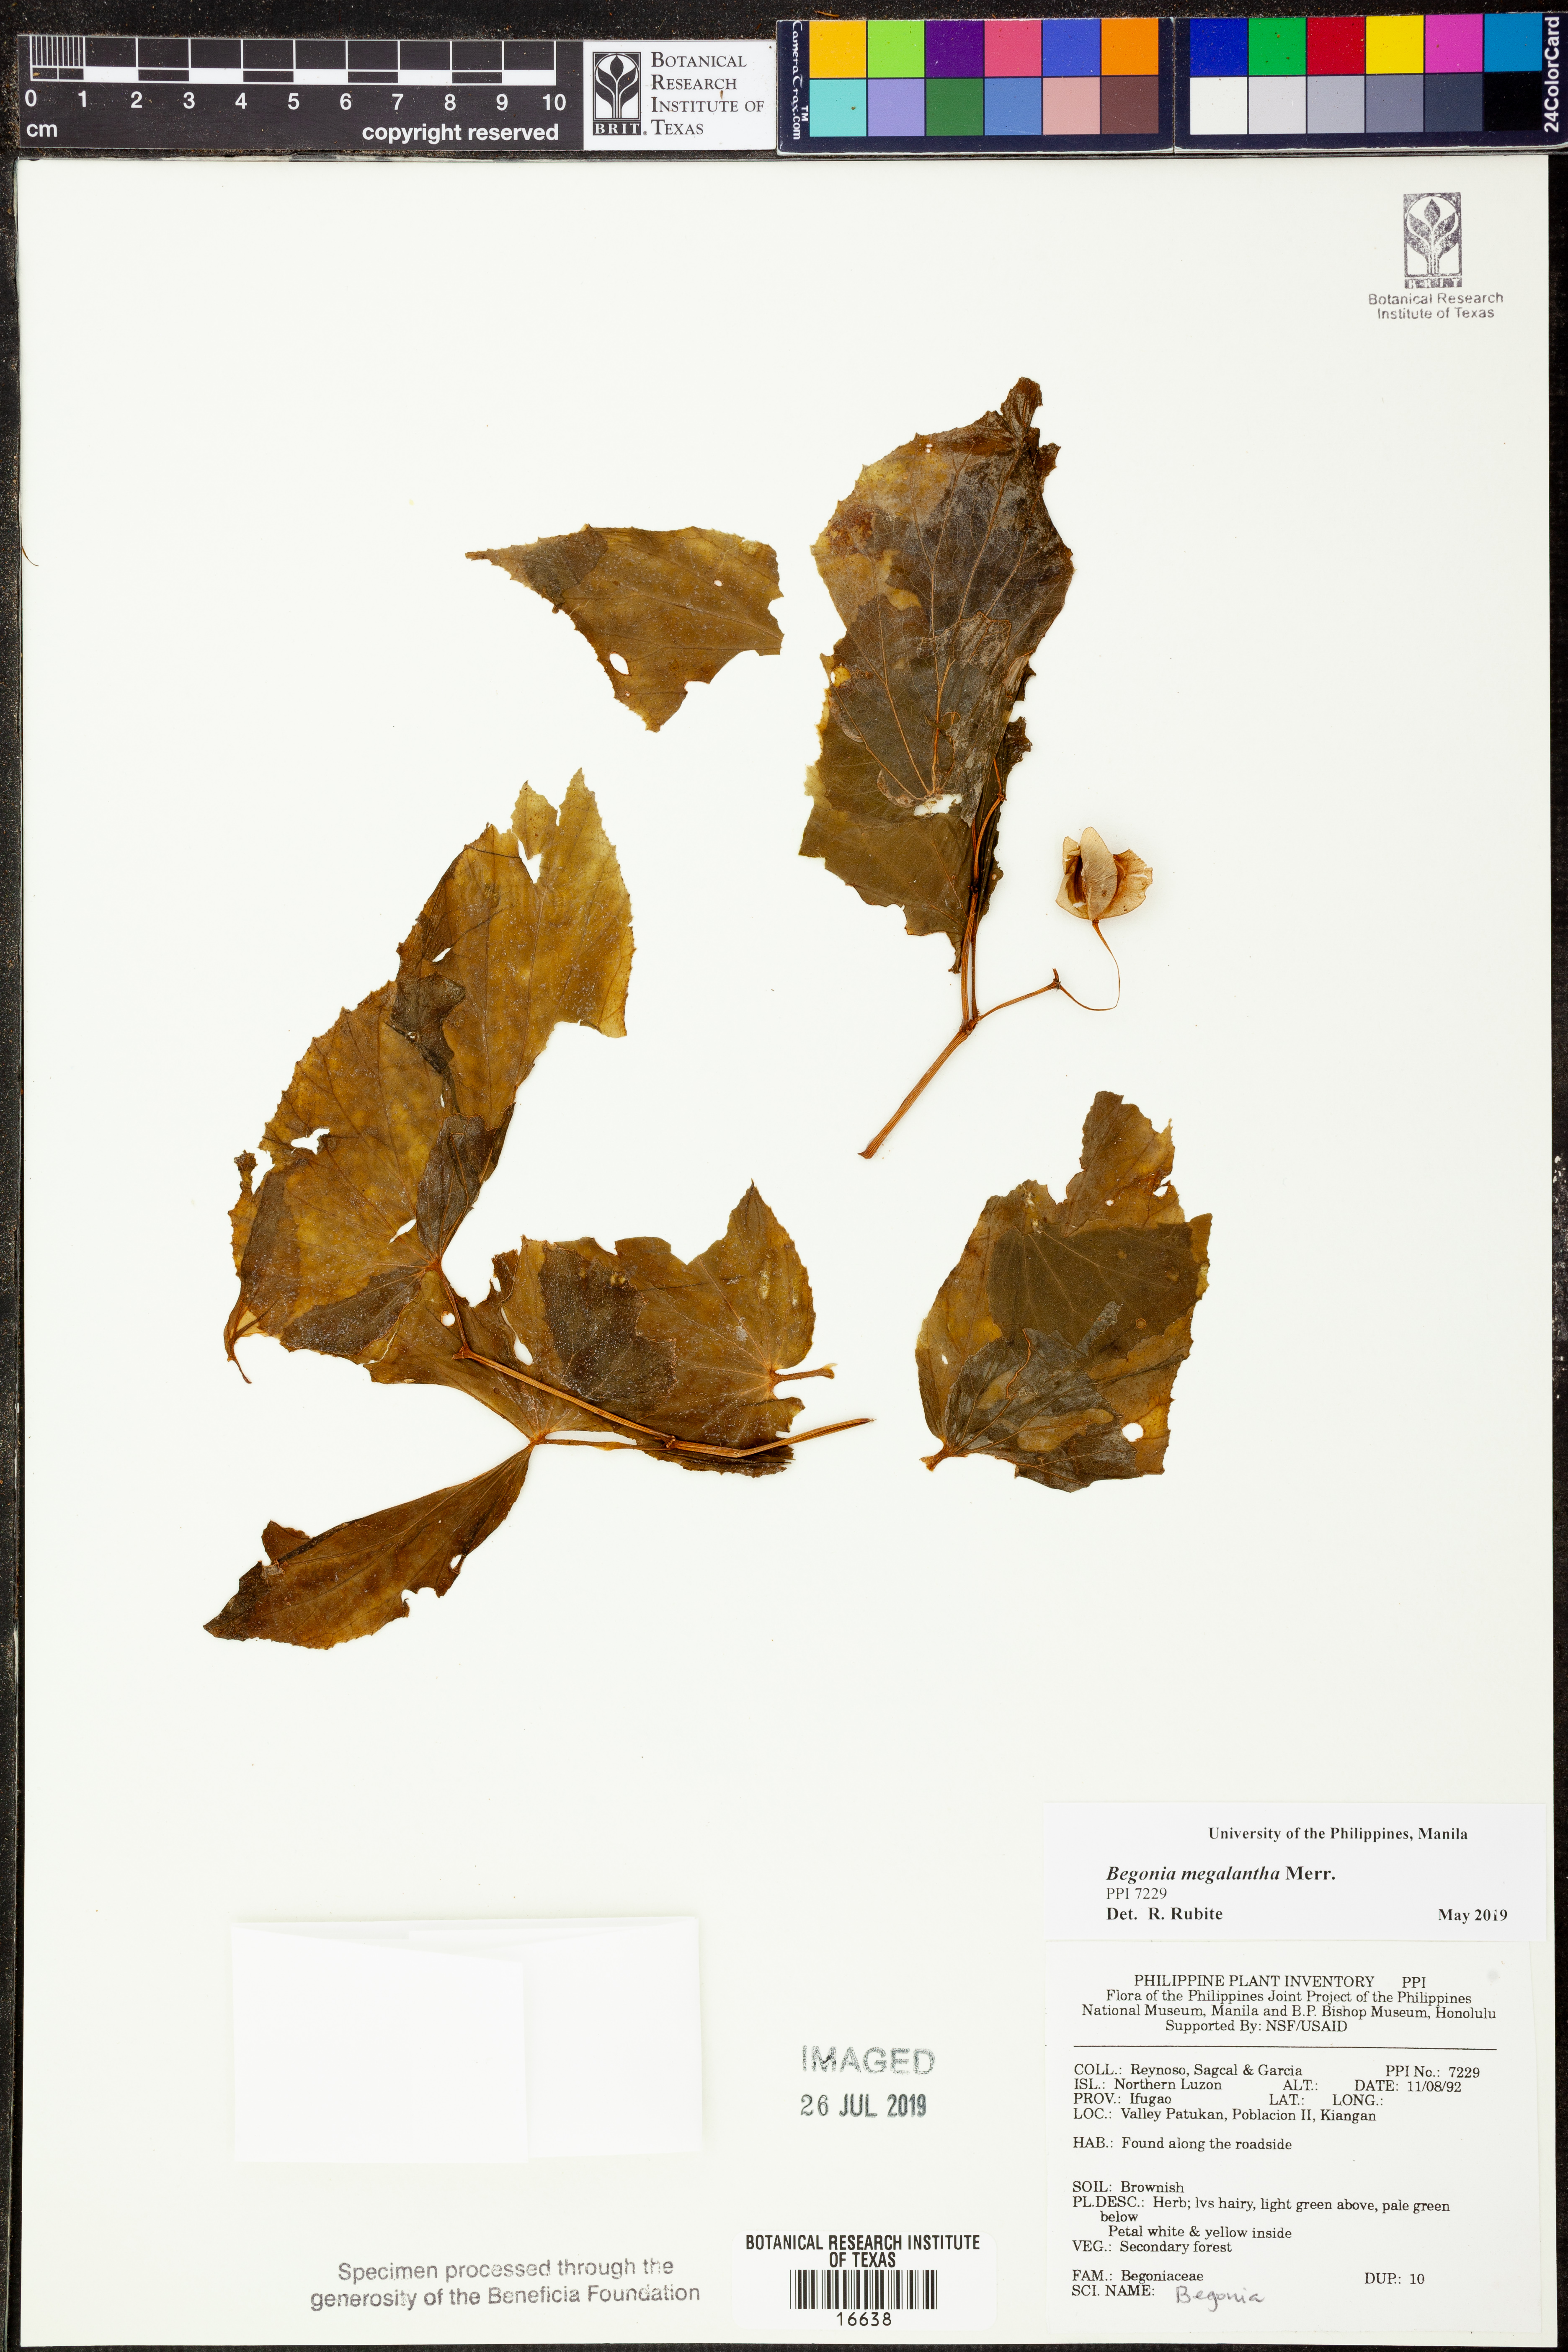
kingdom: Plantae
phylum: Tracheophyta
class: Magnoliopsida
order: Cucurbitales
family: Begoniaceae
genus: Begonia
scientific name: Begonia megalantha
